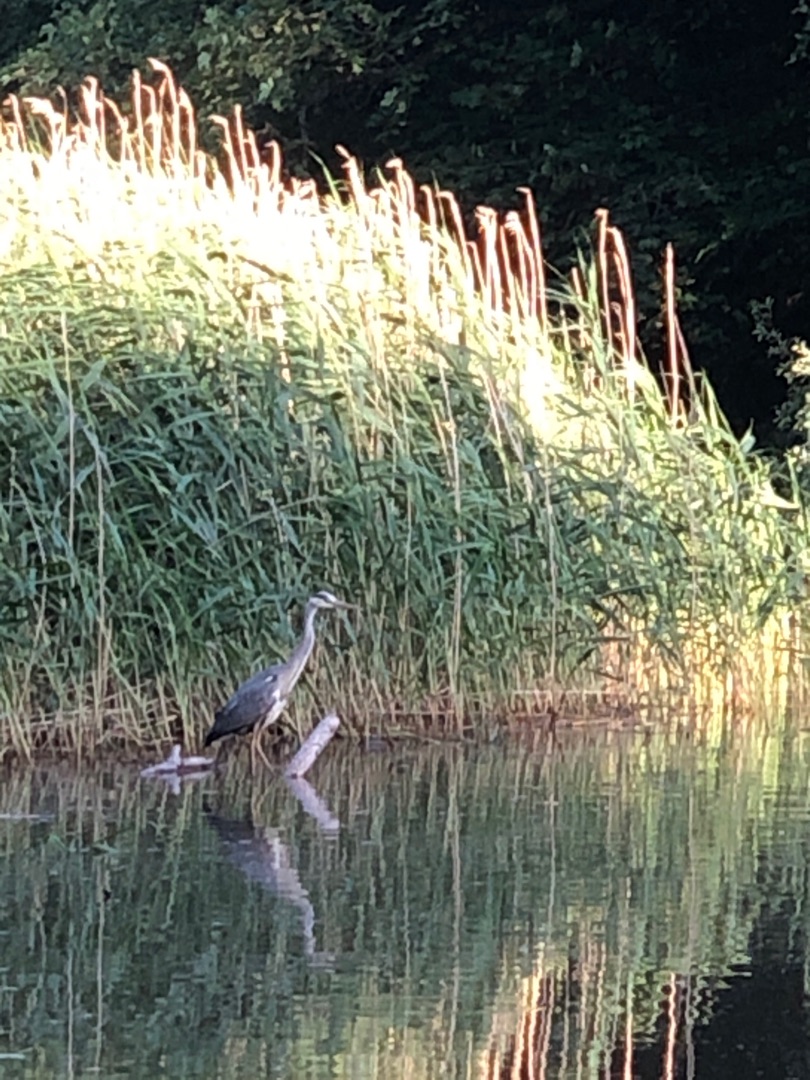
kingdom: Animalia
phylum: Chordata
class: Aves
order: Pelecaniformes
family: Ardeidae
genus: Ardea
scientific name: Ardea cinerea
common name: Fiskehejre
